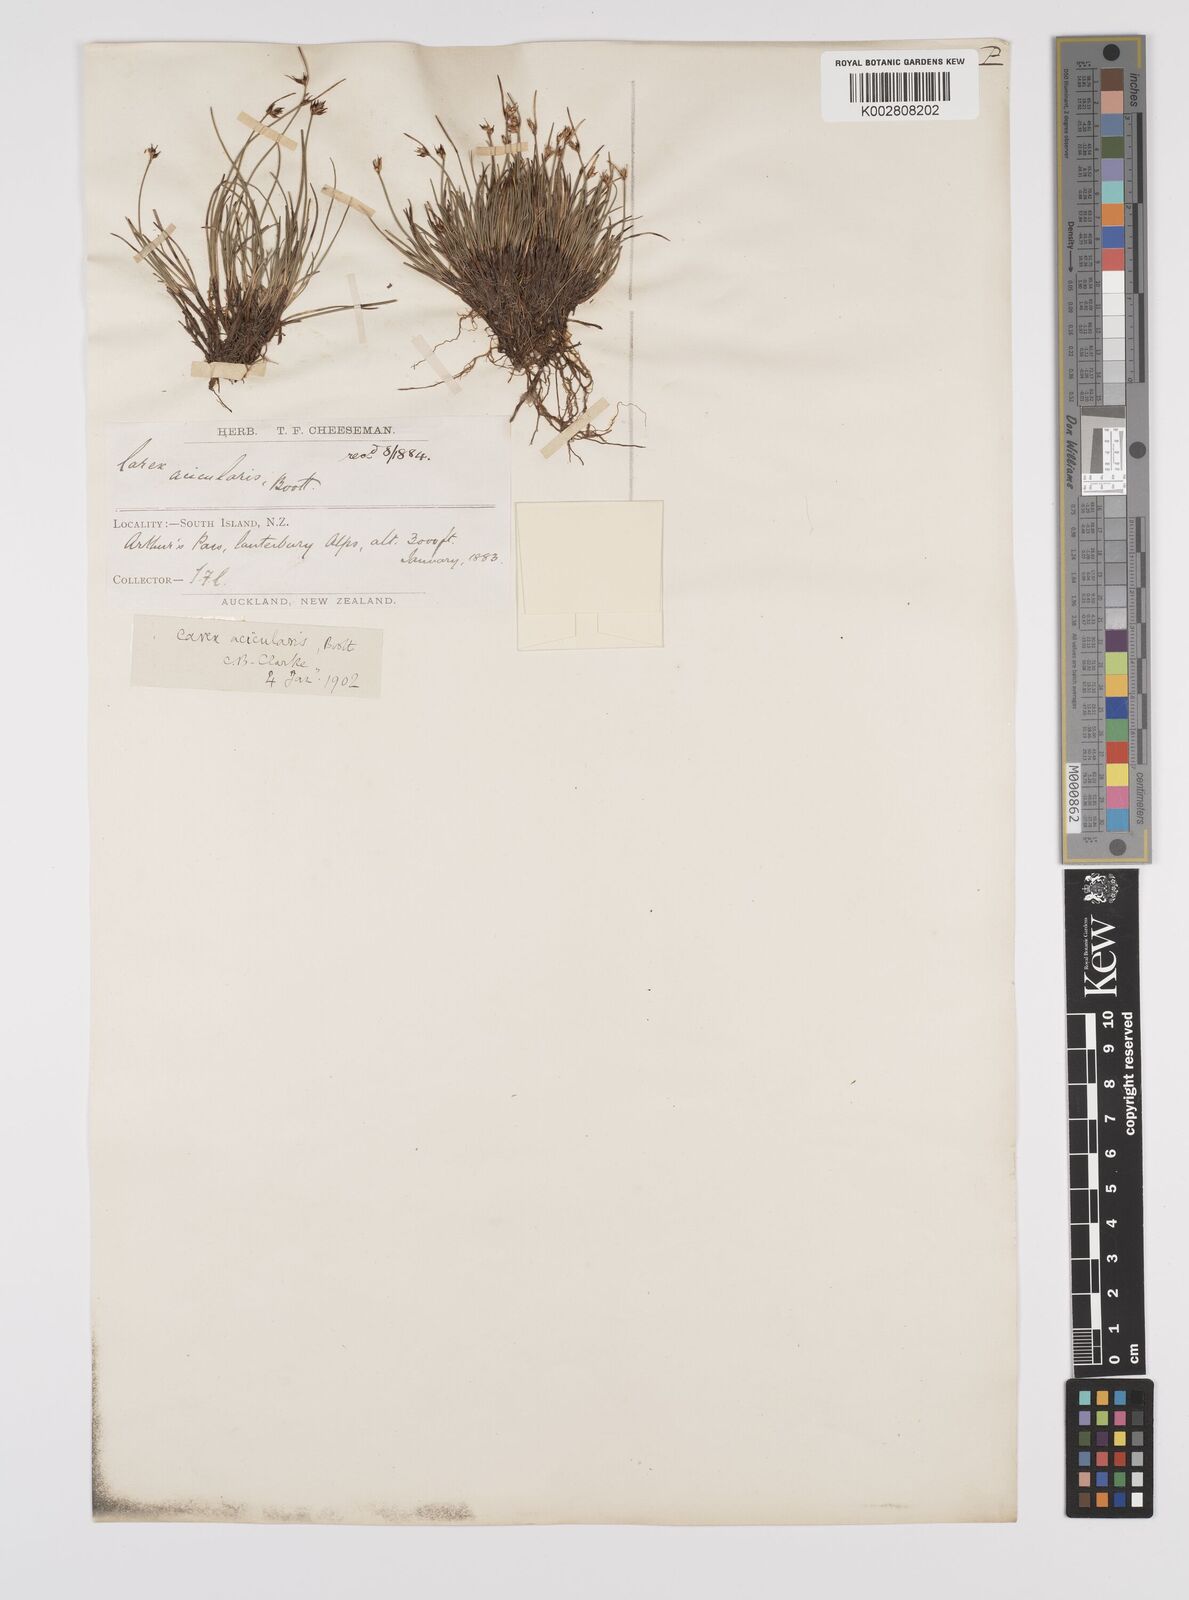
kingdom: Plantae
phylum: Tracheophyta
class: Liliopsida
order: Poales
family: Cyperaceae
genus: Carex
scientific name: Carex acicularis
